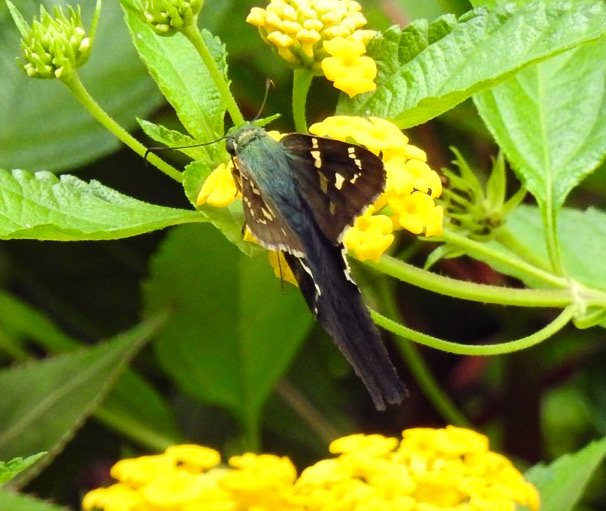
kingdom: Animalia
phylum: Arthropoda
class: Insecta
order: Lepidoptera
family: Hesperiidae
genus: Urbanus
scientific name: Urbanus proteus
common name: Long-tailed Skipper
